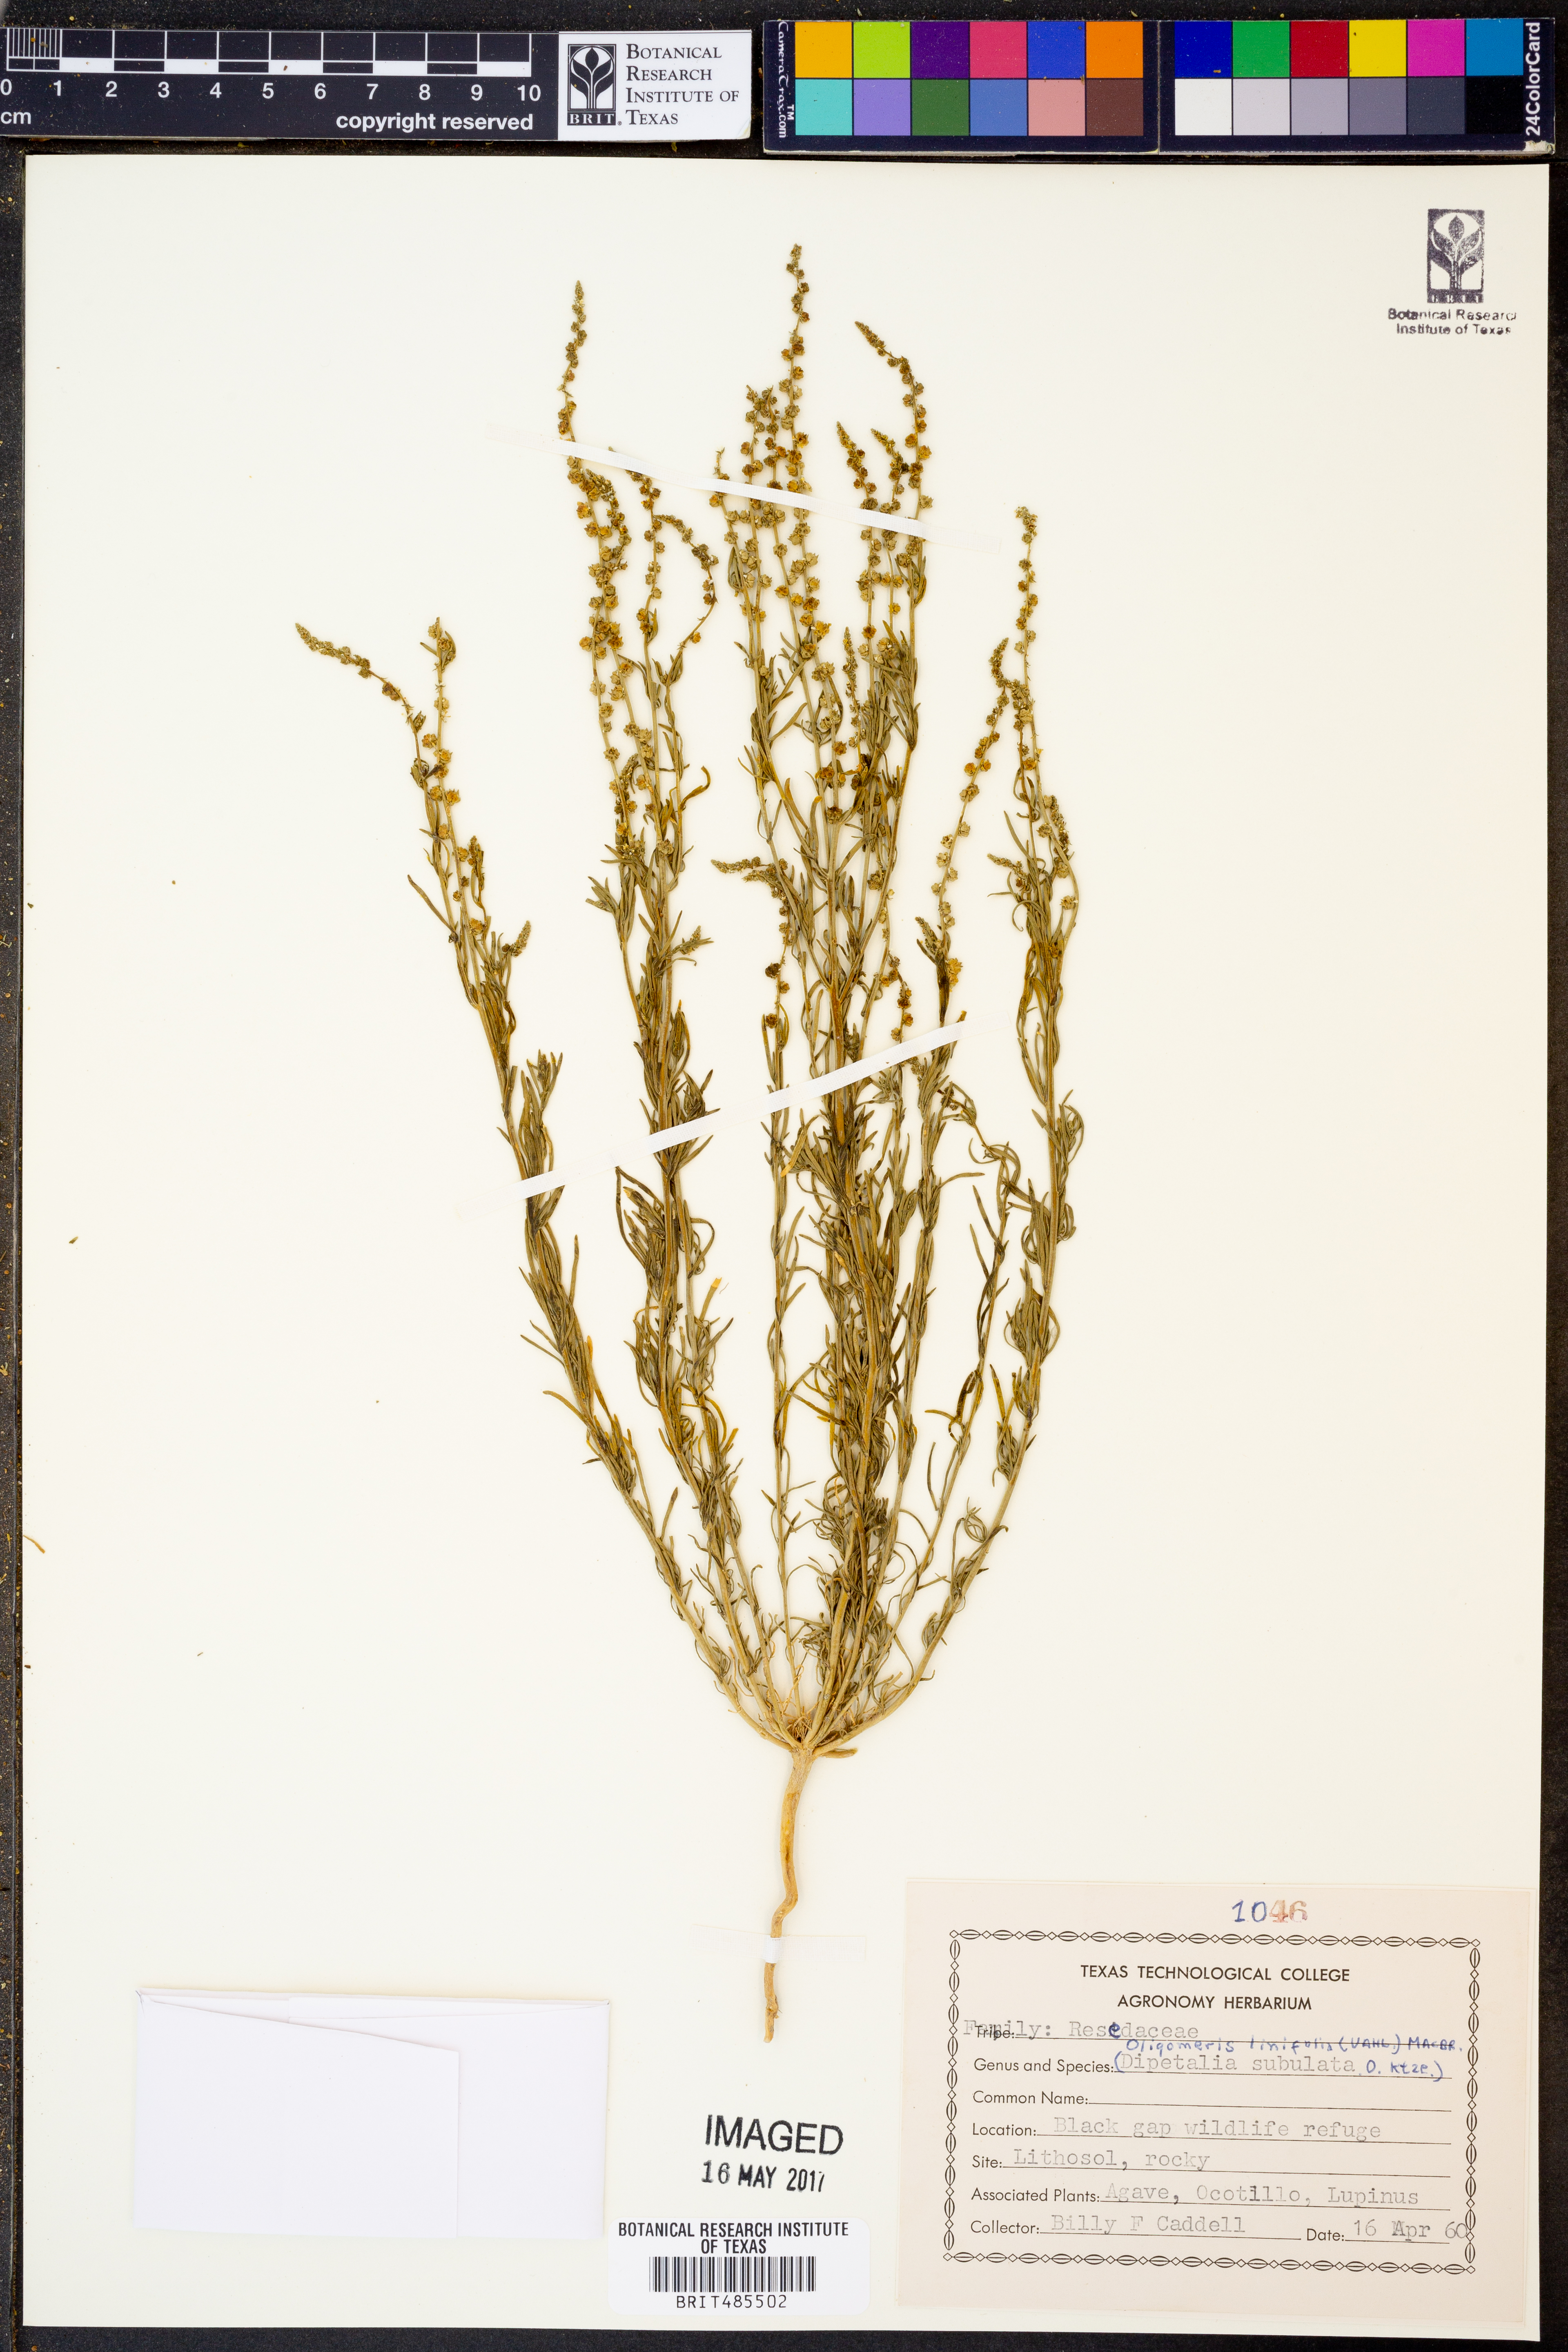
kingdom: Plantae
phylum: Tracheophyta
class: Magnoliopsida
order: Brassicales
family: Resedaceae
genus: Oligomeris
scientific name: Oligomeris linifolia
